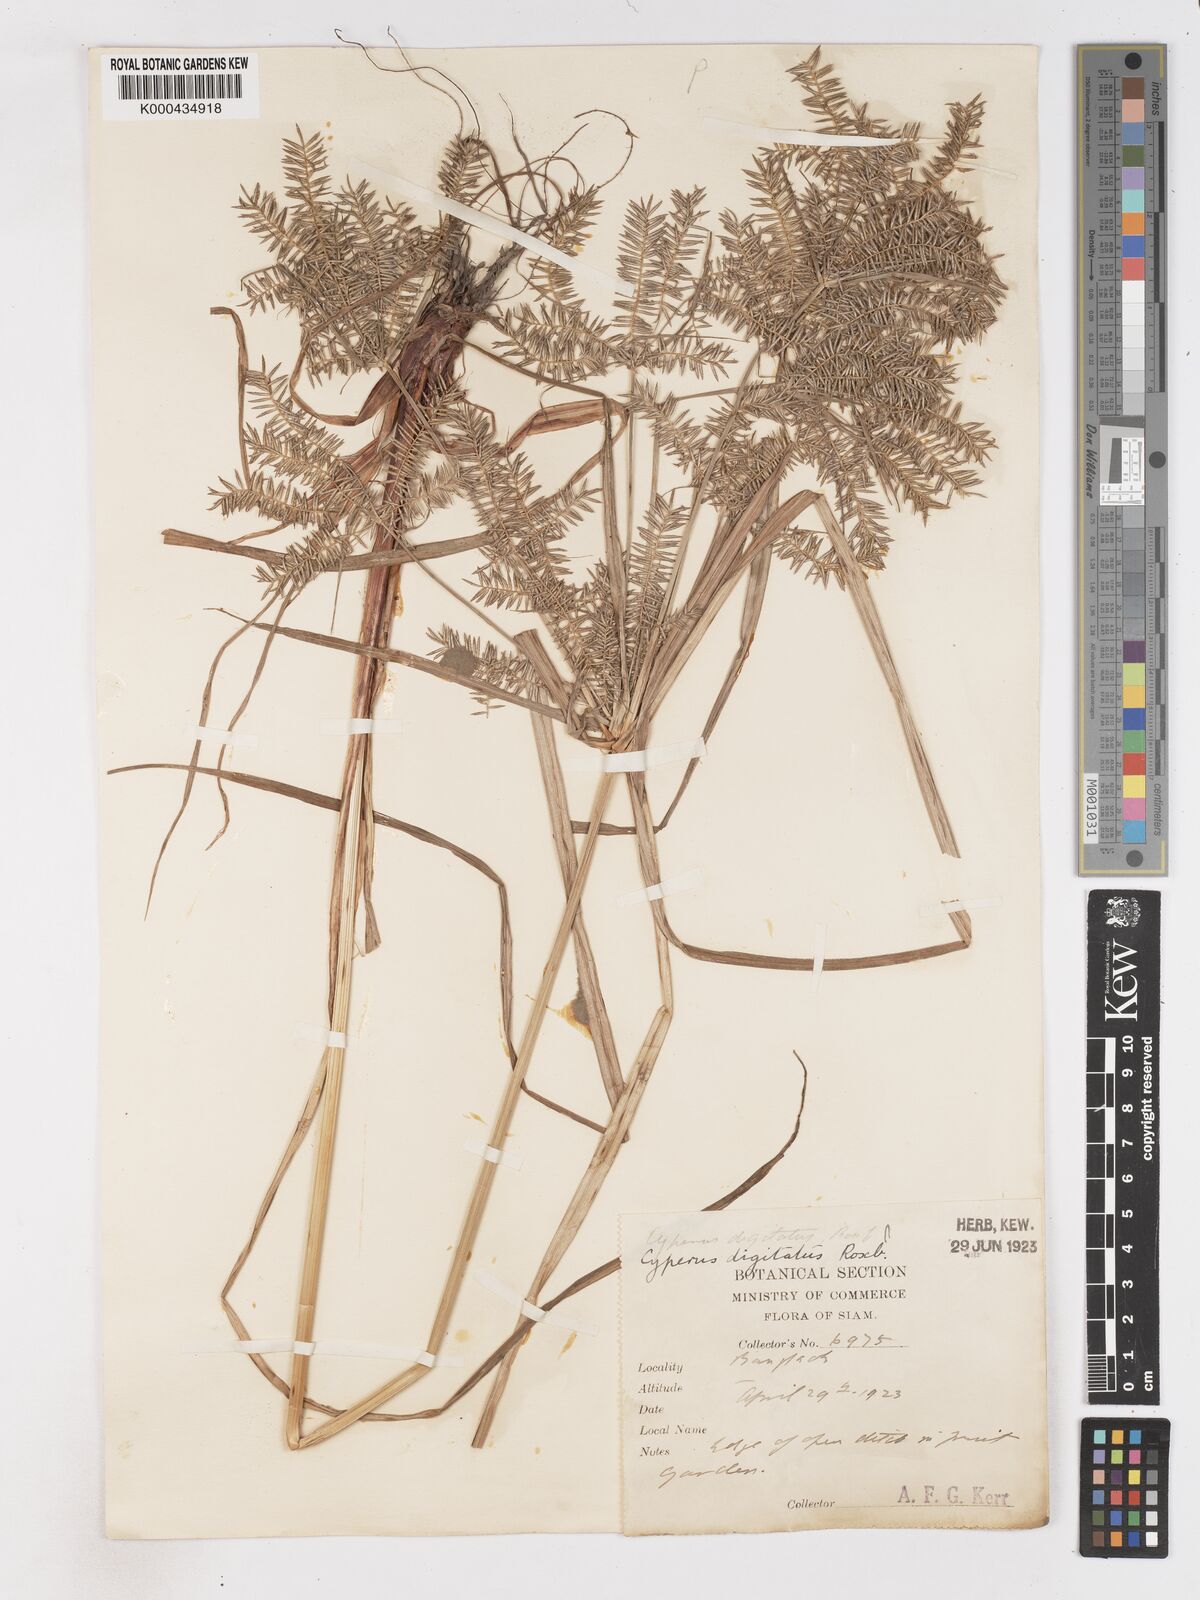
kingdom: Plantae
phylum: Tracheophyta
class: Liliopsida
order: Poales
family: Cyperaceae
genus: Cyperus
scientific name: Cyperus digitatus
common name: Finger flatsedge
